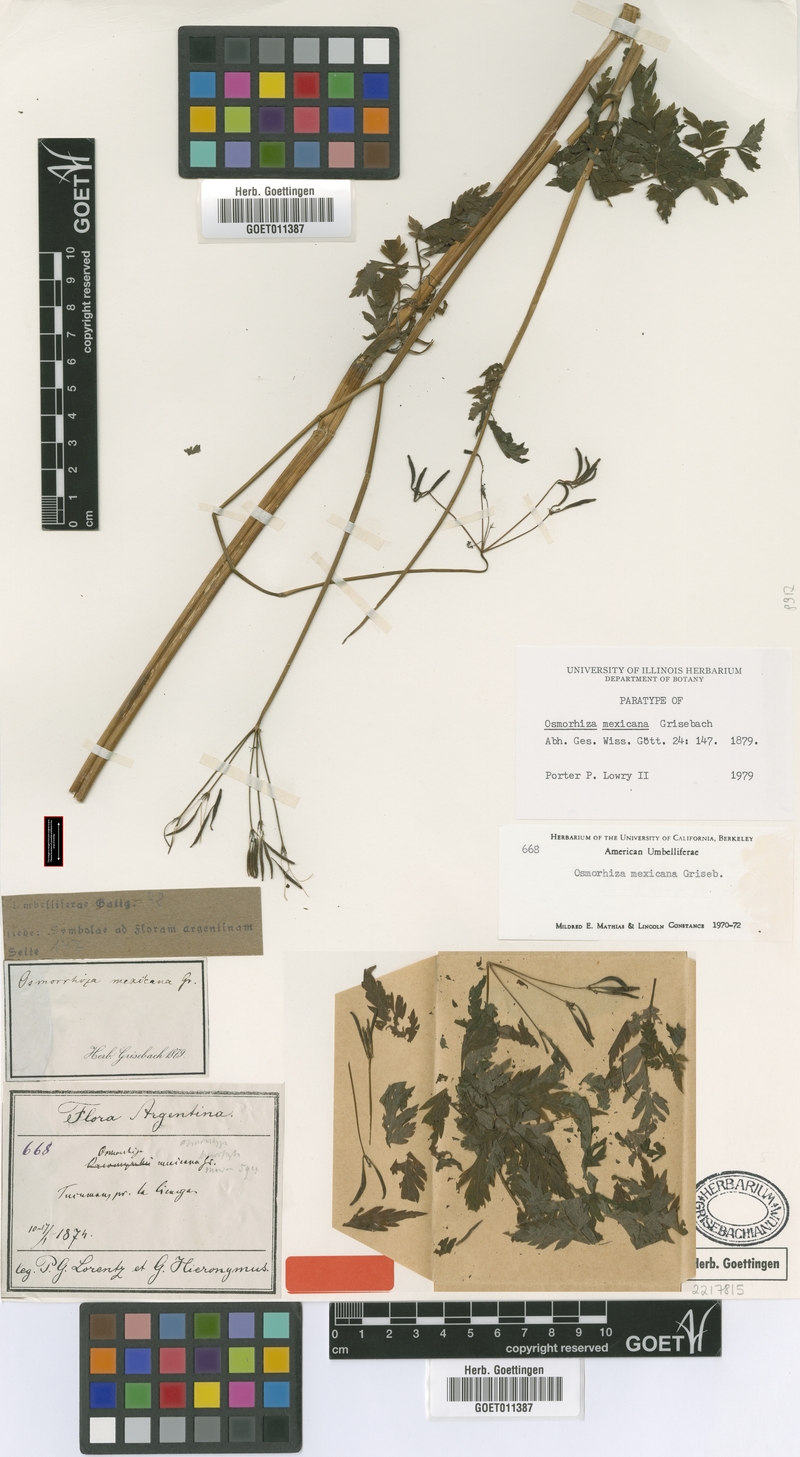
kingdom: Plantae
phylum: Tracheophyta
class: Magnoliopsida
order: Apiales
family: Apiaceae
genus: Osmorhiza
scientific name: Osmorhiza mexicana
